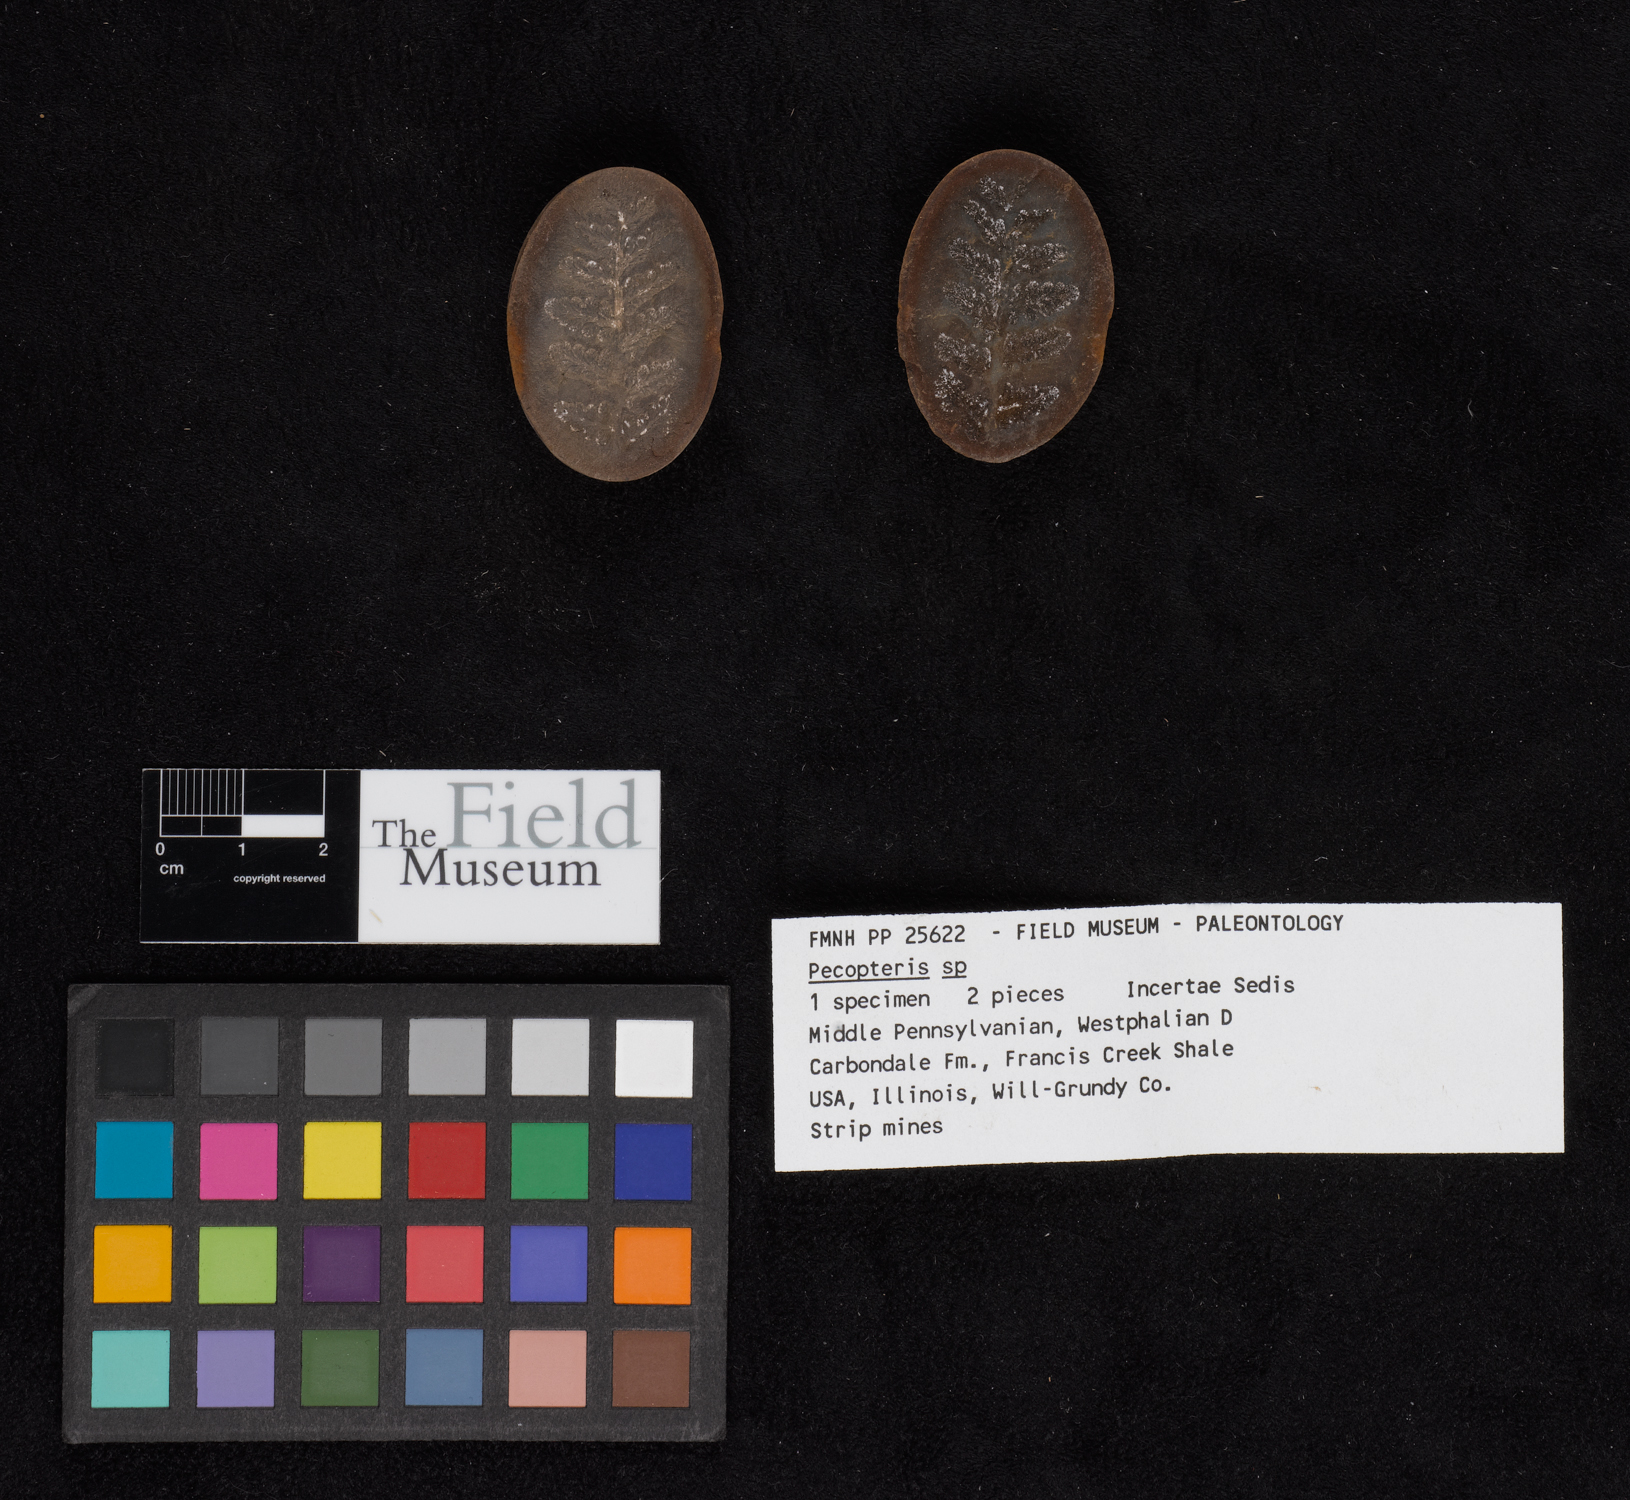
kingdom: Plantae
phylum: Tracheophyta
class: Polypodiopsida
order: Marattiales
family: Asterothecaceae
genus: Pecopteris
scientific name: Pecopteris
